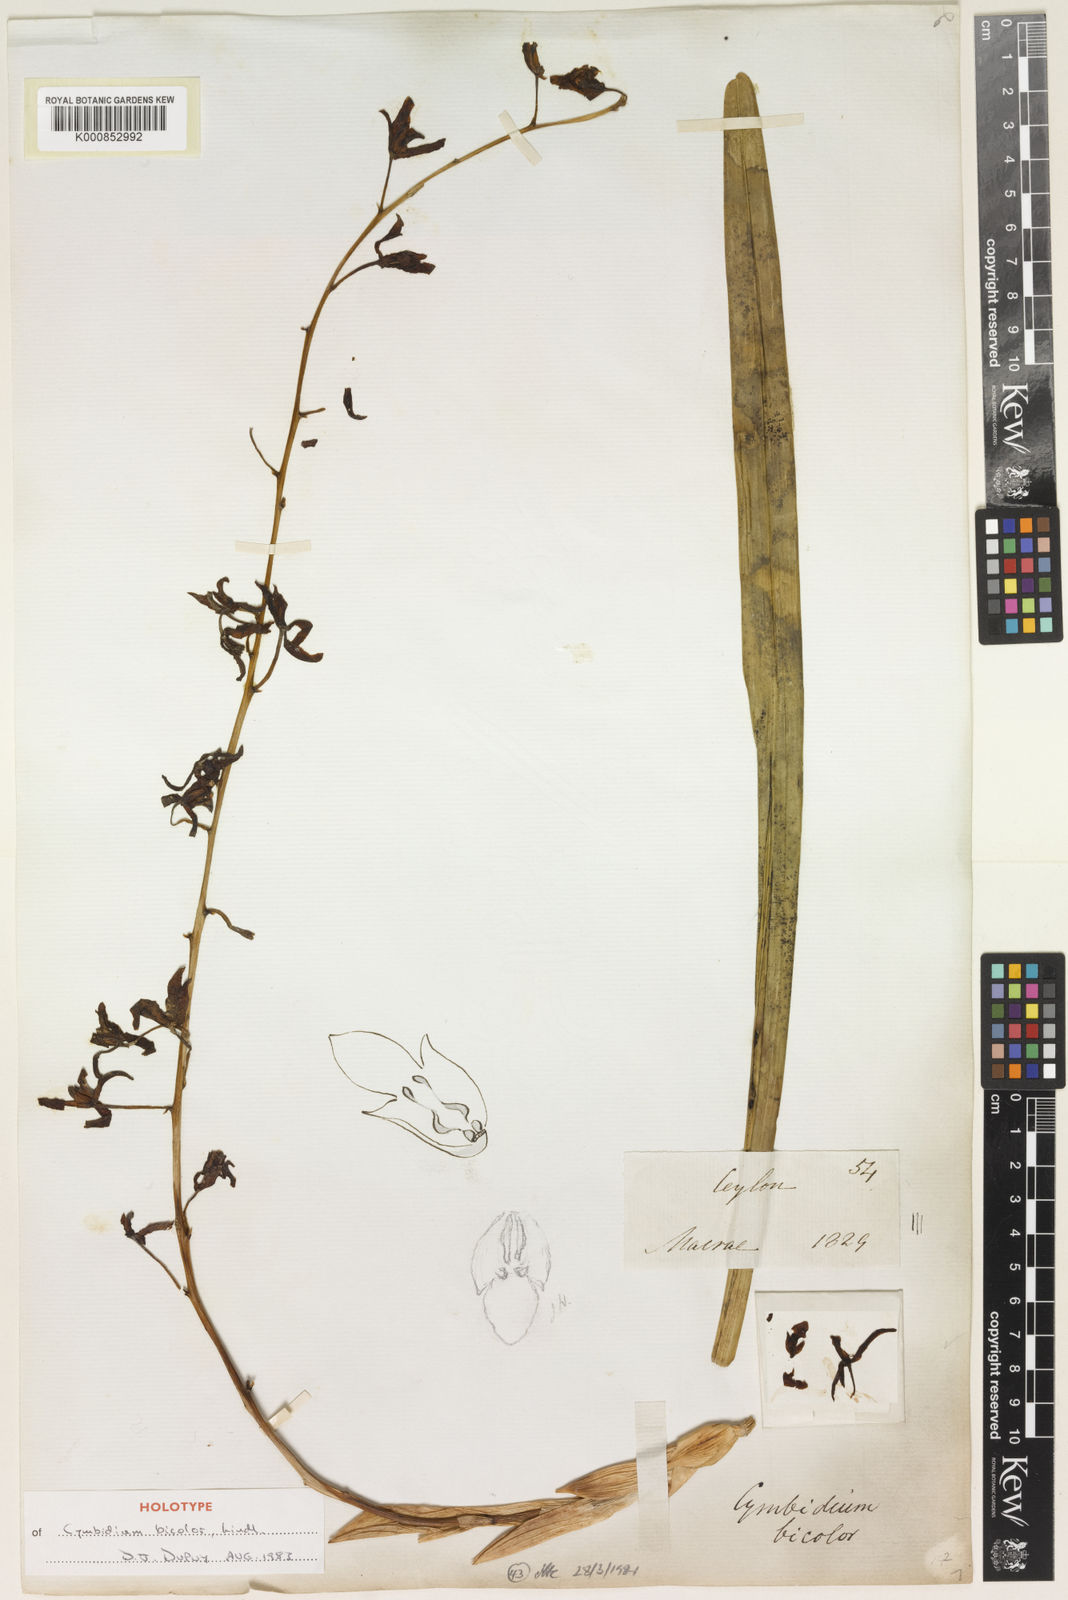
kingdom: Plantae
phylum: Tracheophyta
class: Liliopsida
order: Asparagales
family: Orchidaceae
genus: Cymbidium
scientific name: Cymbidium bicolor
